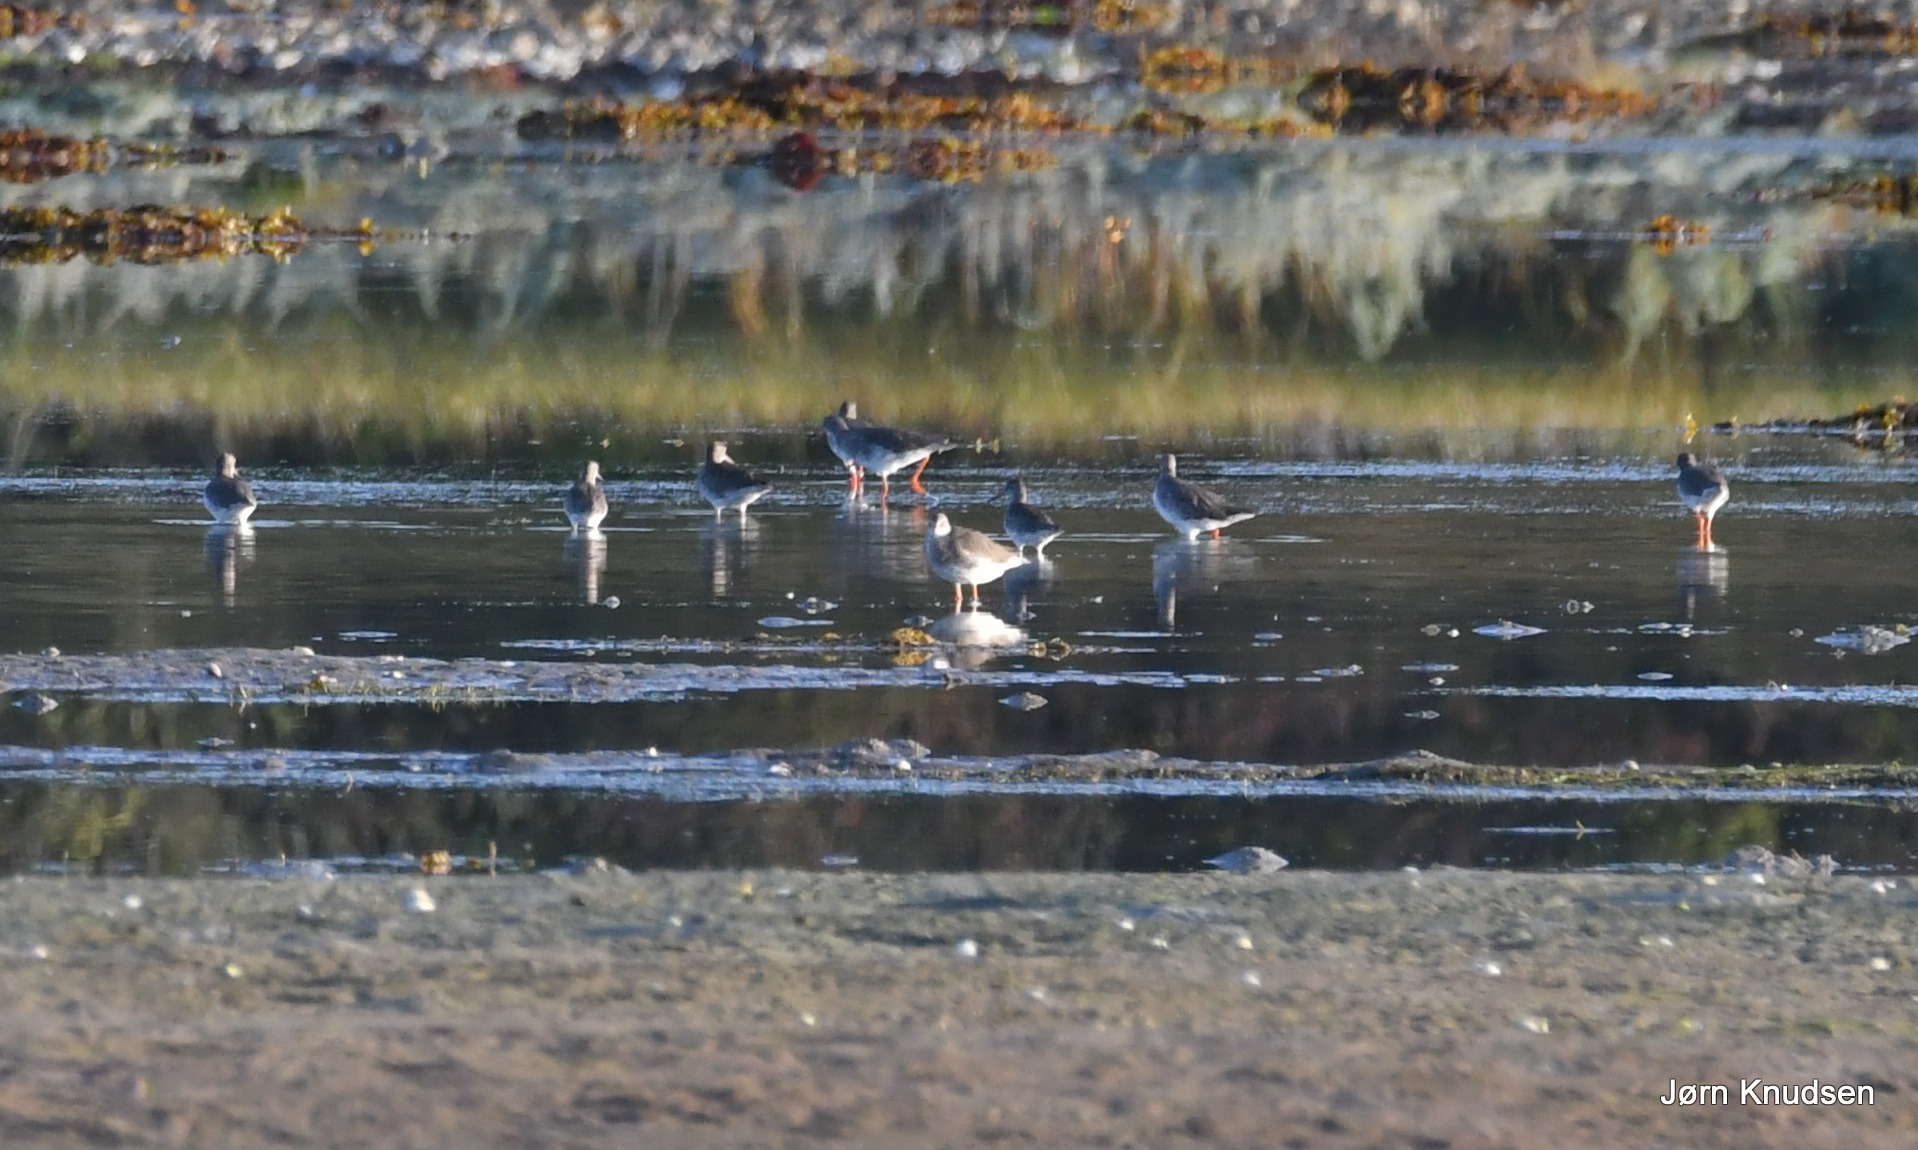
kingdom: Animalia
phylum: Chordata
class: Aves
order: Charadriiformes
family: Scolopacidae
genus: Tringa
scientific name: Tringa totanus
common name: Rødben
